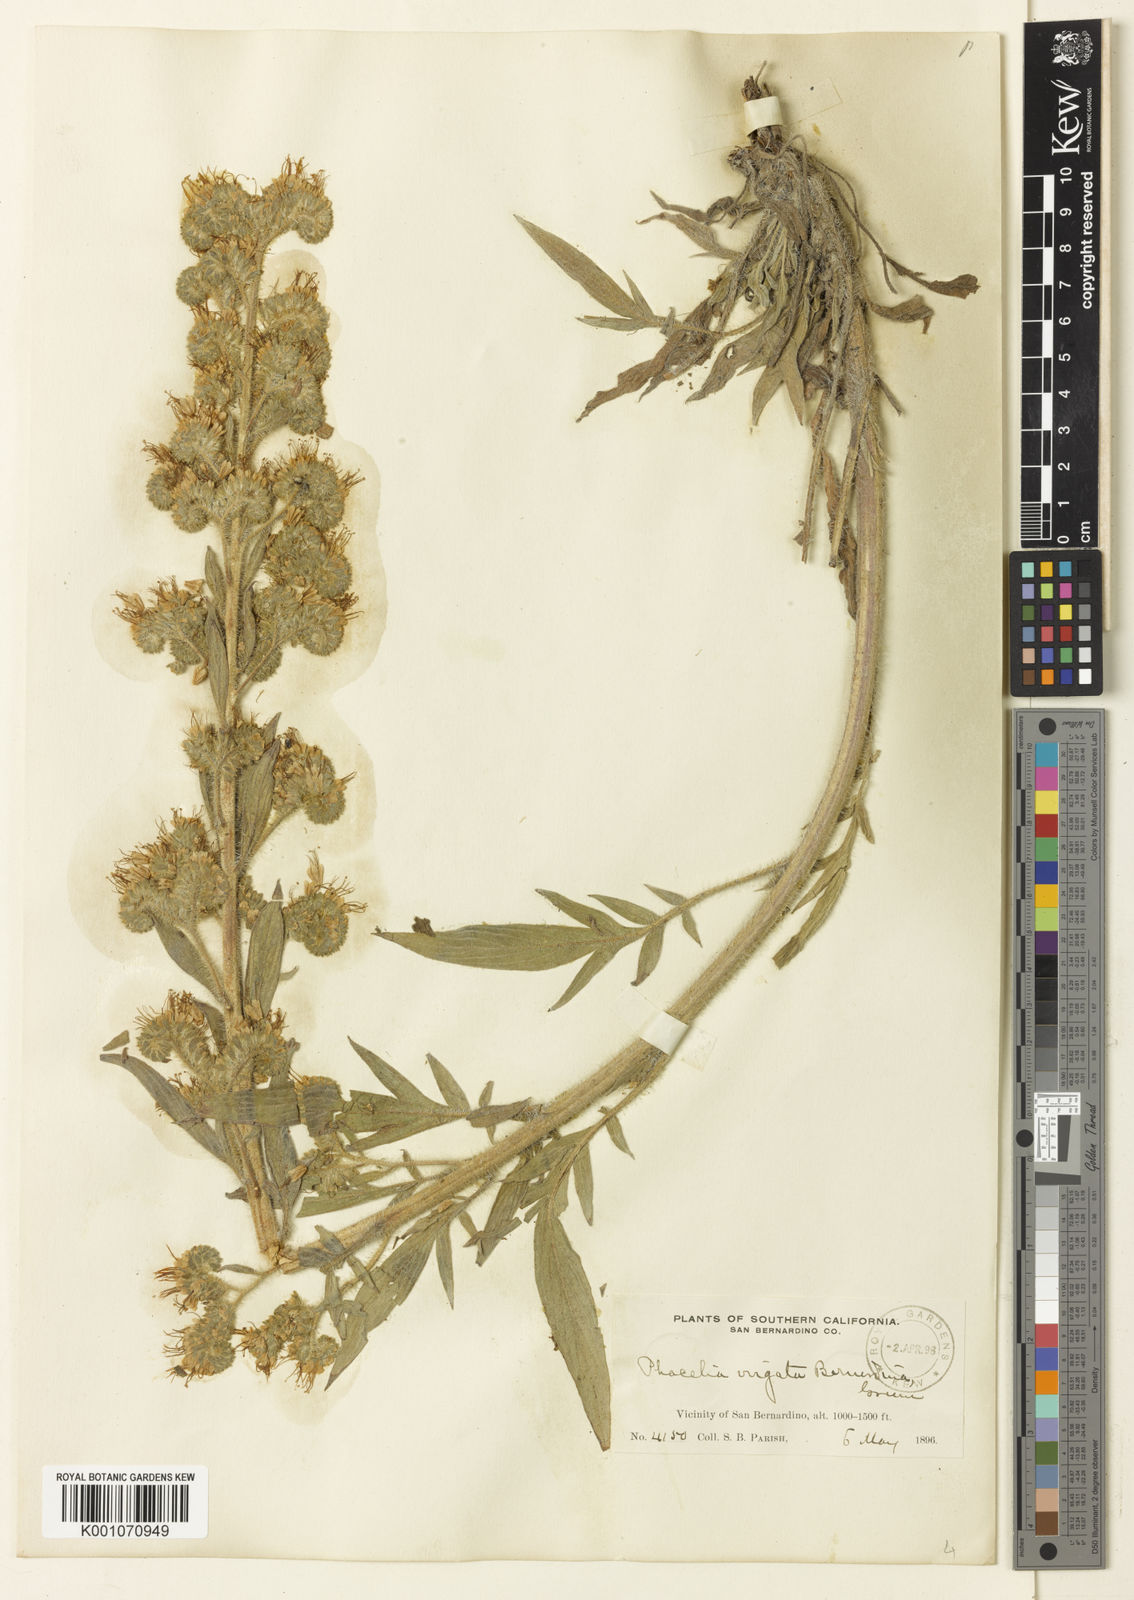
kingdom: Plantae
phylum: Tracheophyta
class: Magnoliopsida
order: Boraginales
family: Hydrophyllaceae
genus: Phacelia
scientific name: Phacelia imbricata
